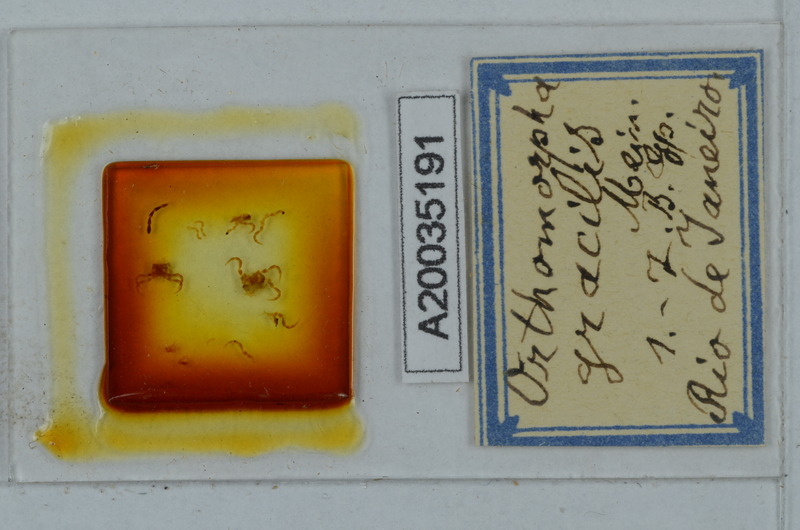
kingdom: Animalia
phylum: Arthropoda
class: Diplopoda
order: Polydesmida
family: Paradoxosomatidae
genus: Oxidus
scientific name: Oxidus gracilis
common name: Greenhouse millipede
